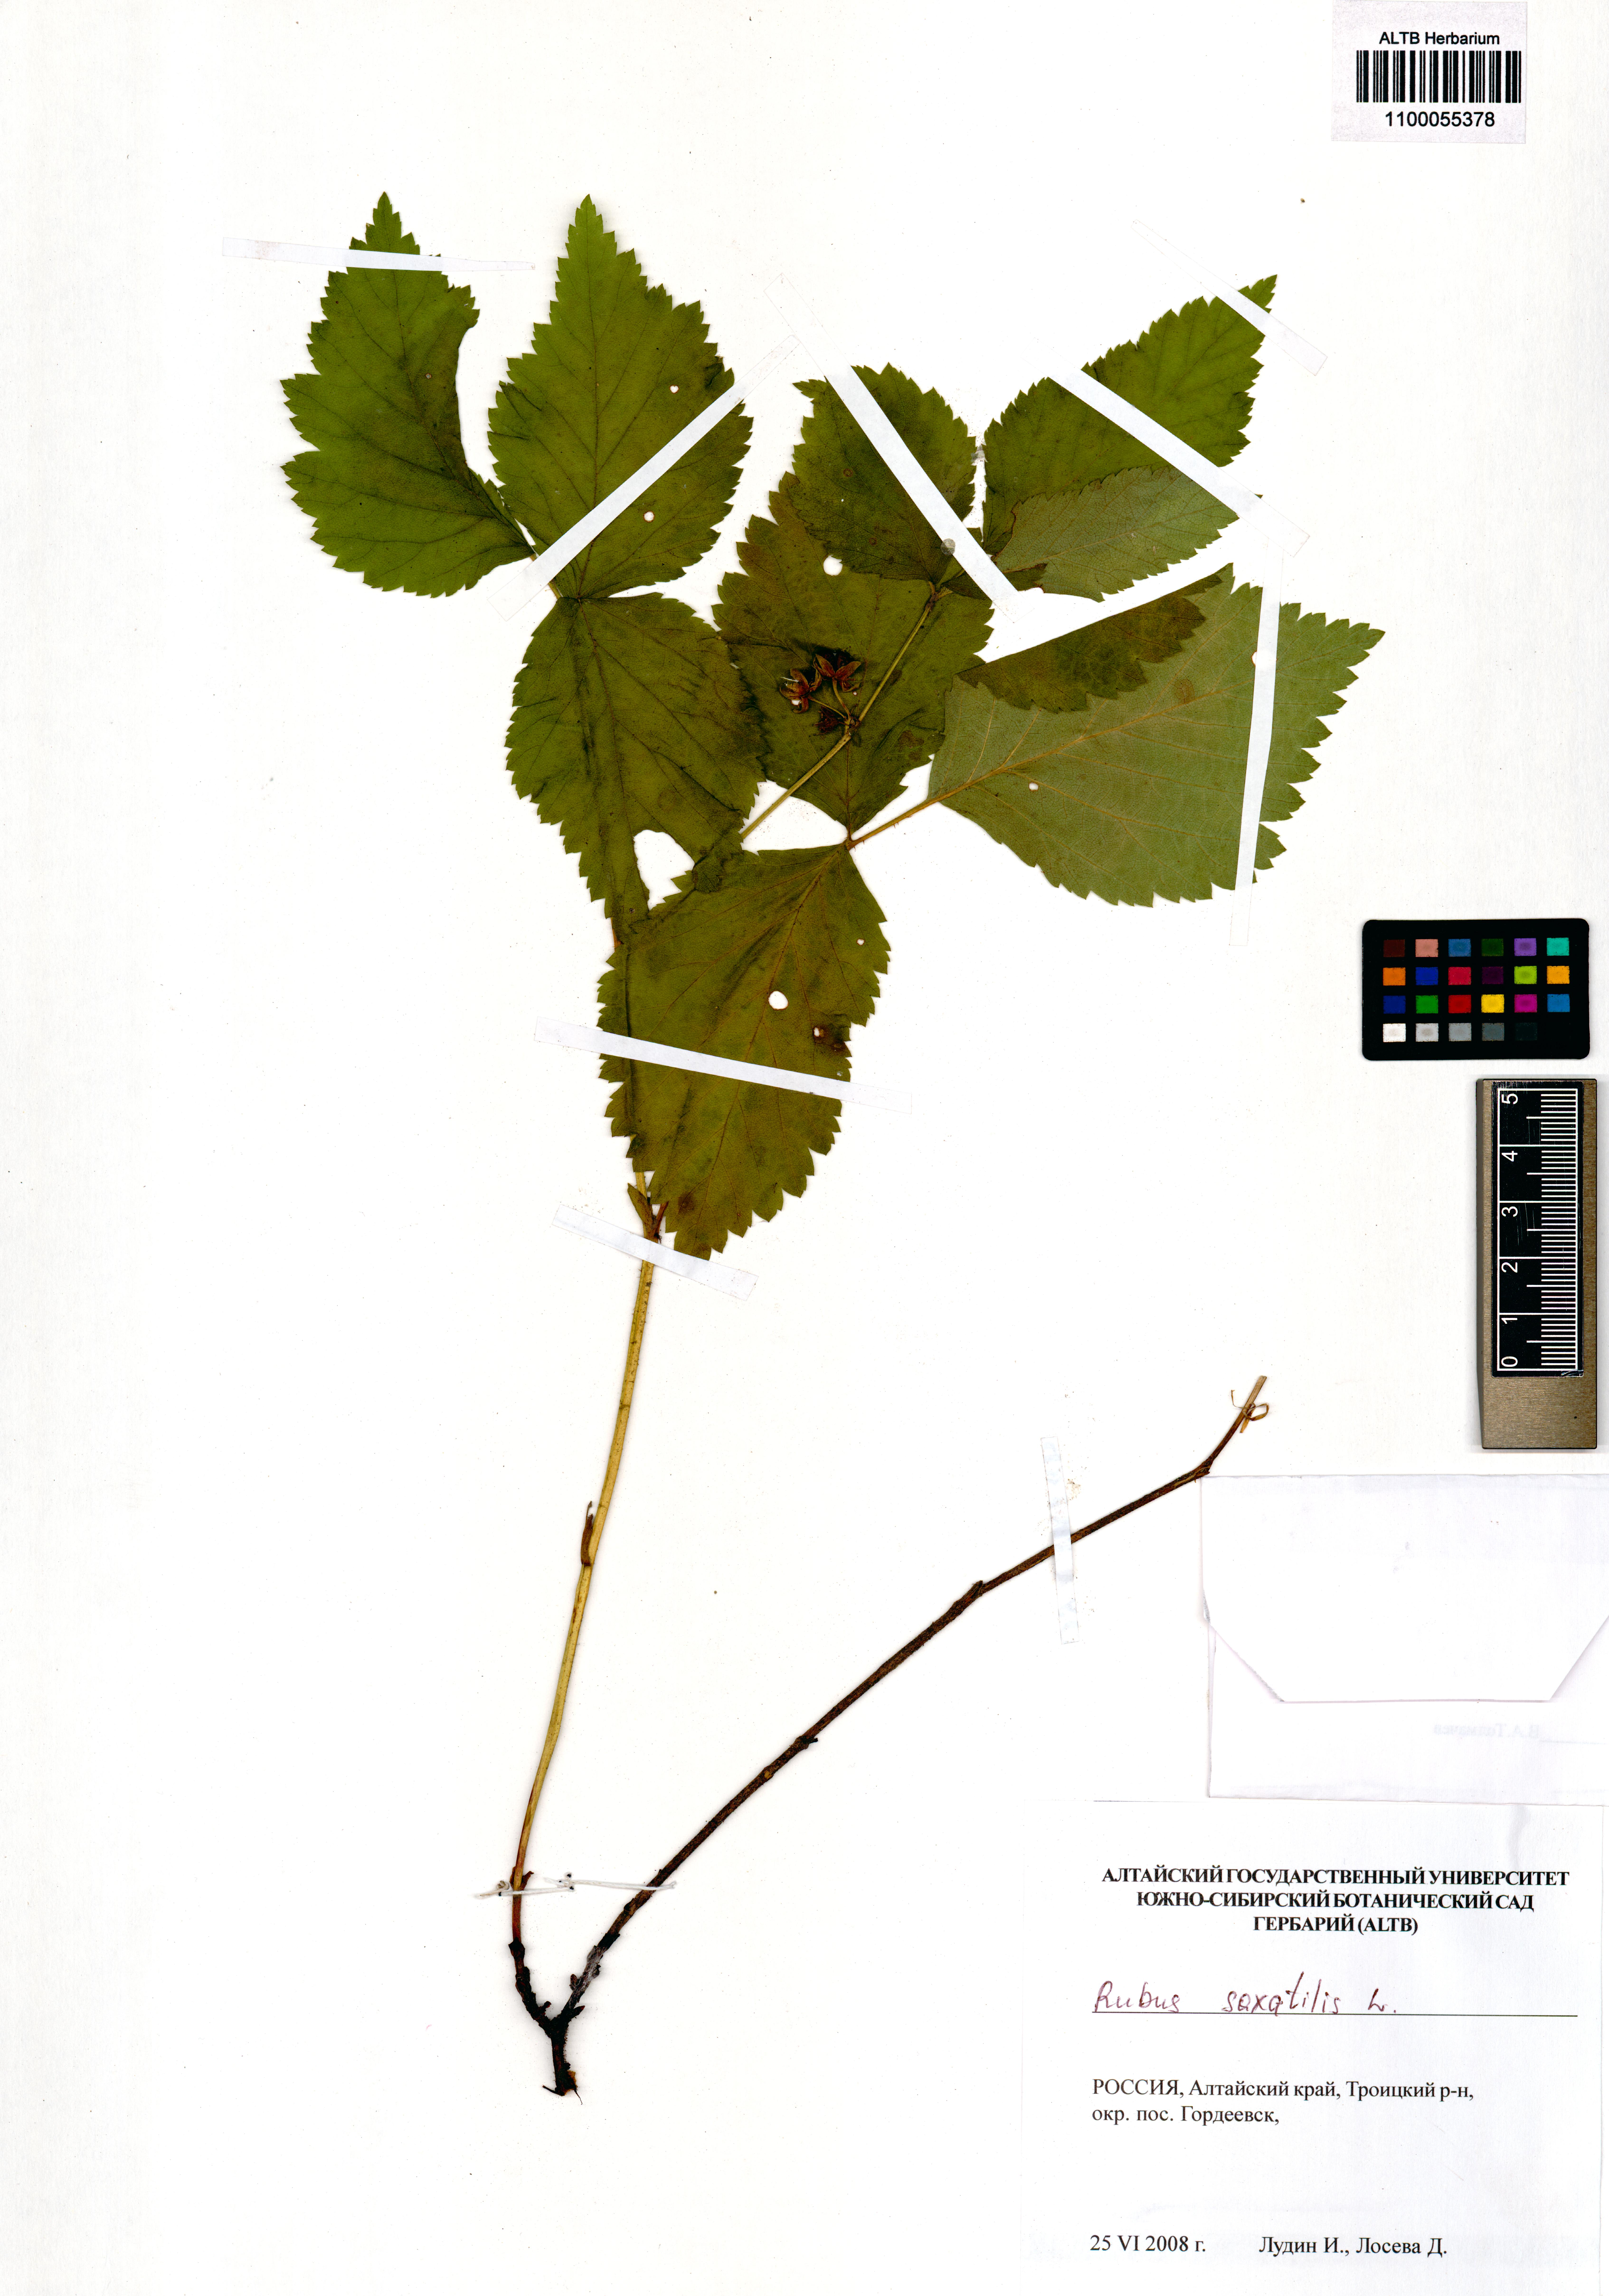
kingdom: Plantae
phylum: Tracheophyta
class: Magnoliopsida
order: Rosales
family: Rosaceae
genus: Rubus
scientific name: Rubus saxatilis
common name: Stone bramble
